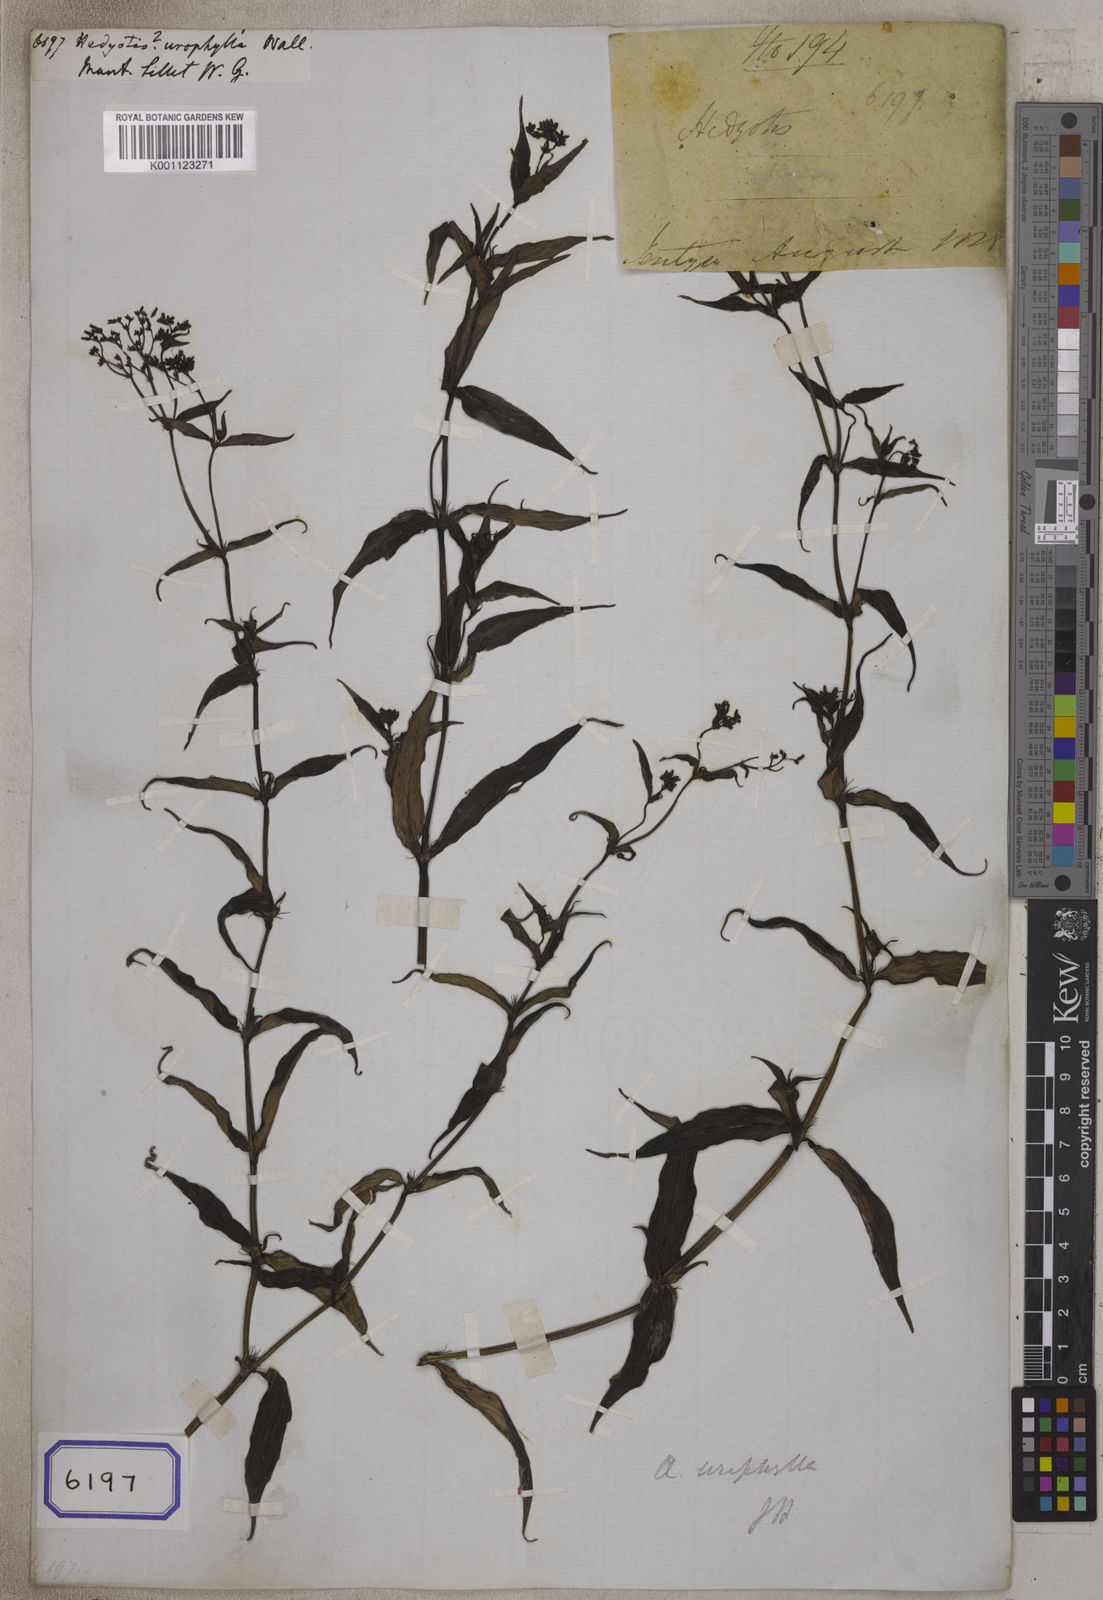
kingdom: Plantae
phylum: Tracheophyta
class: Magnoliopsida
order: Gentianales
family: Rubiaceae
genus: Hedyotis
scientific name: Hedyotis
